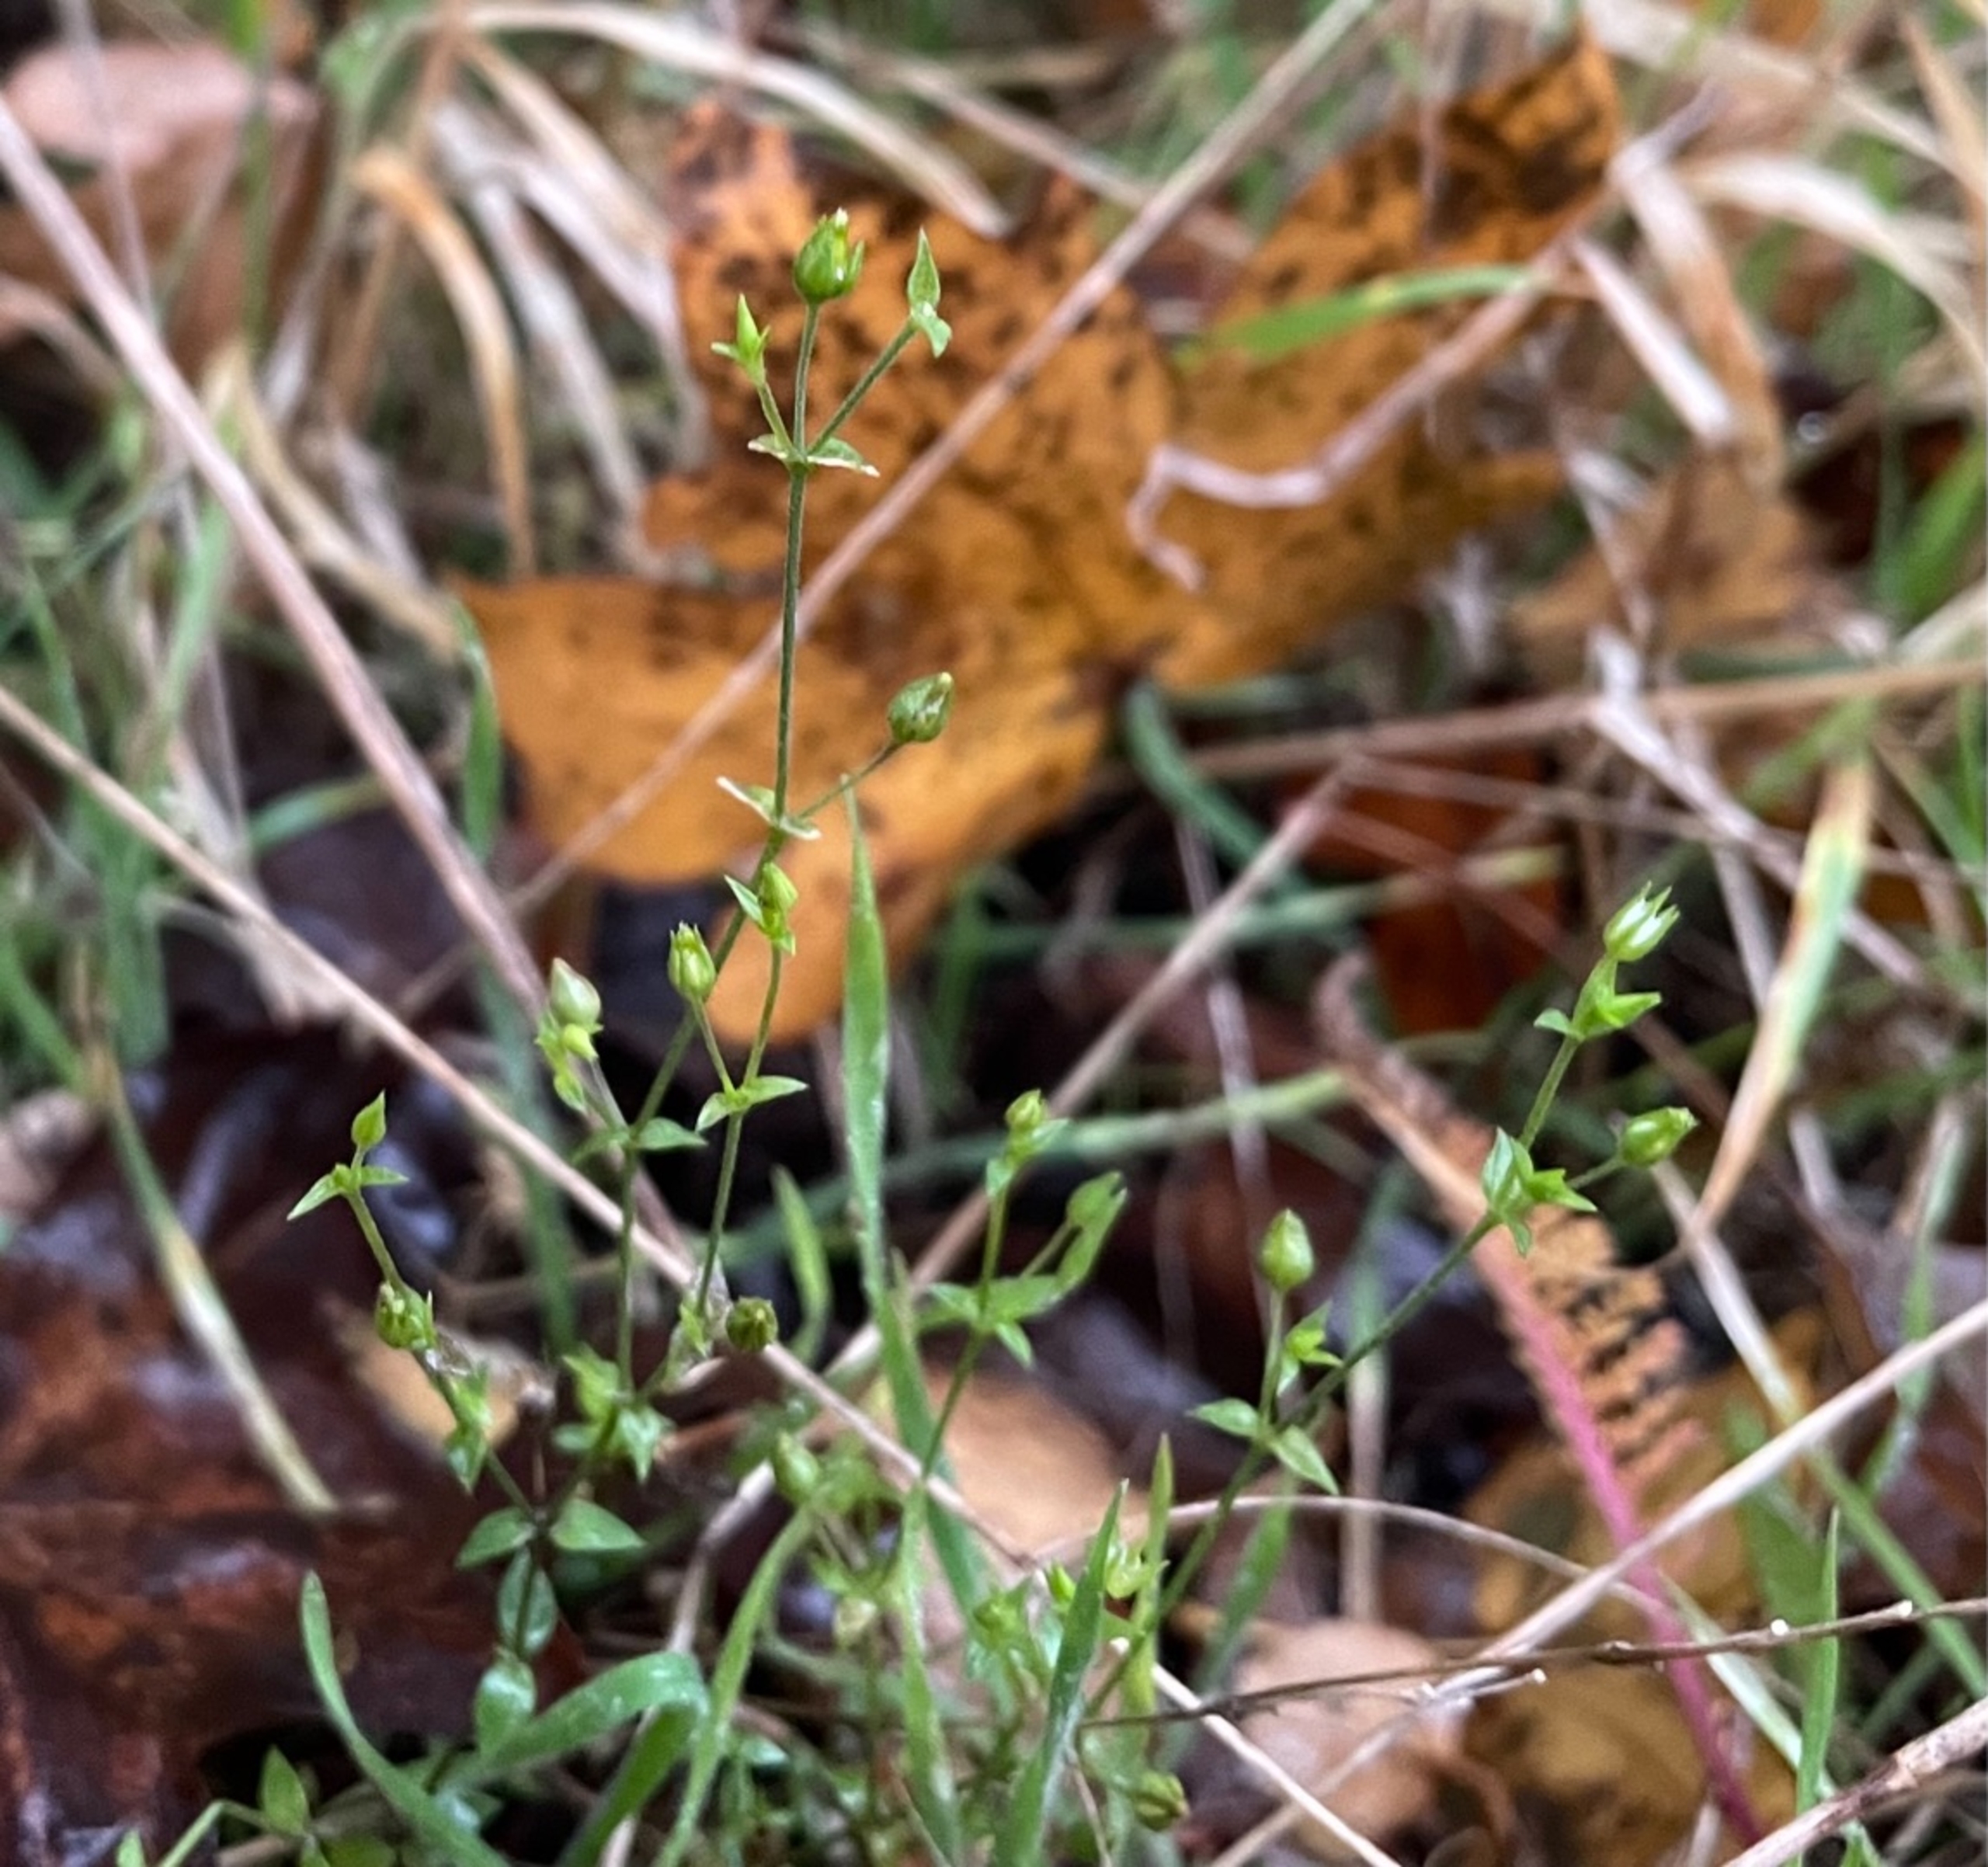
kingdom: Plantae
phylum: Tracheophyta
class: Magnoliopsida
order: Caryophyllales
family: Caryophyllaceae
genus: Arenaria
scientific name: Arenaria serpyllifolia
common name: Almindelig markarve
